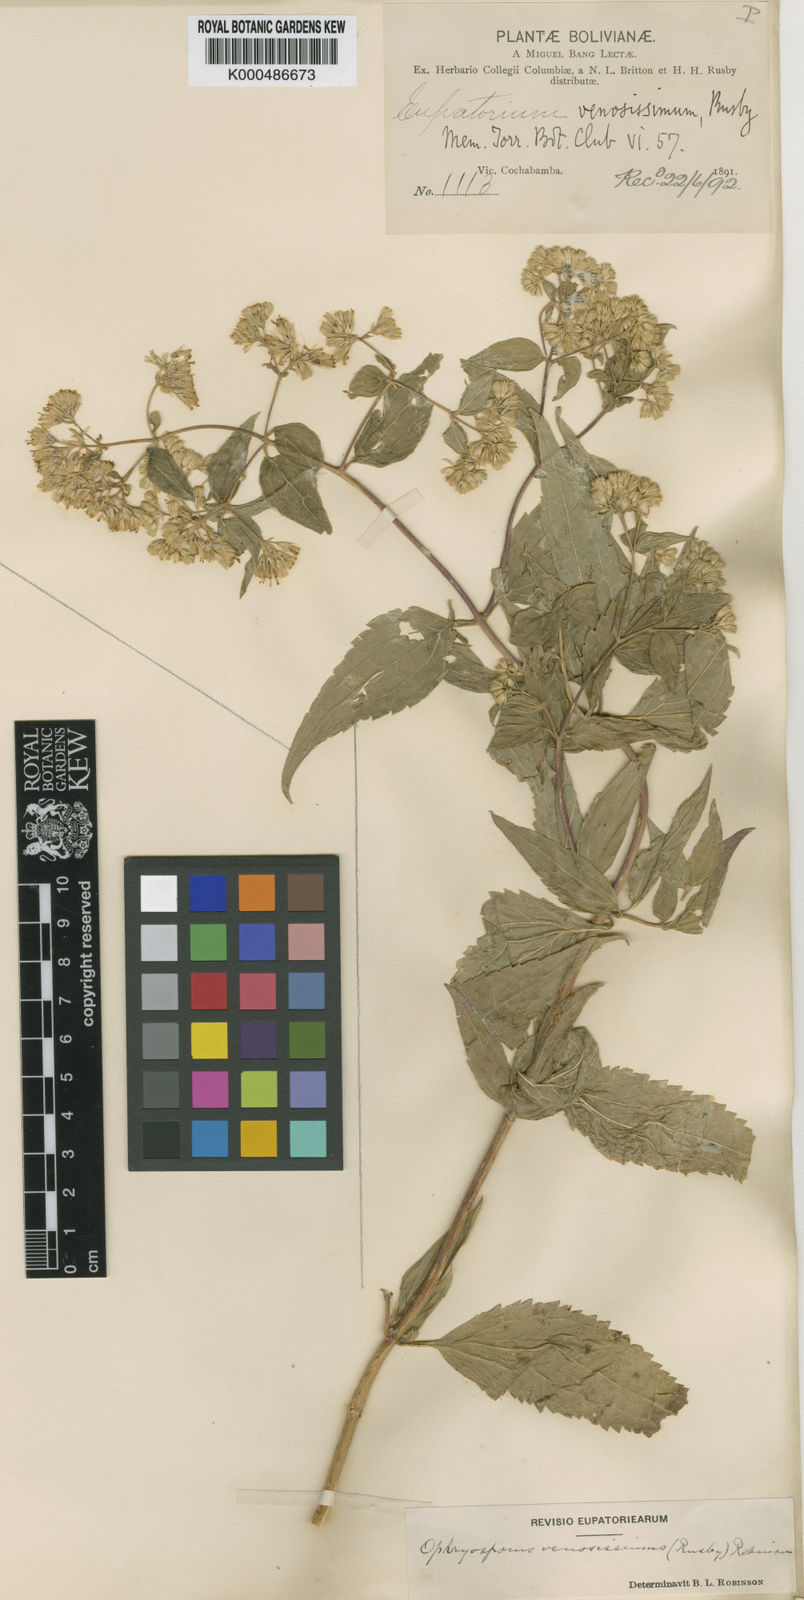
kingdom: Plantae
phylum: Tracheophyta
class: Magnoliopsida
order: Asterales
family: Asteraceae
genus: Ophryosporus
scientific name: Ophryosporus venosissimus
